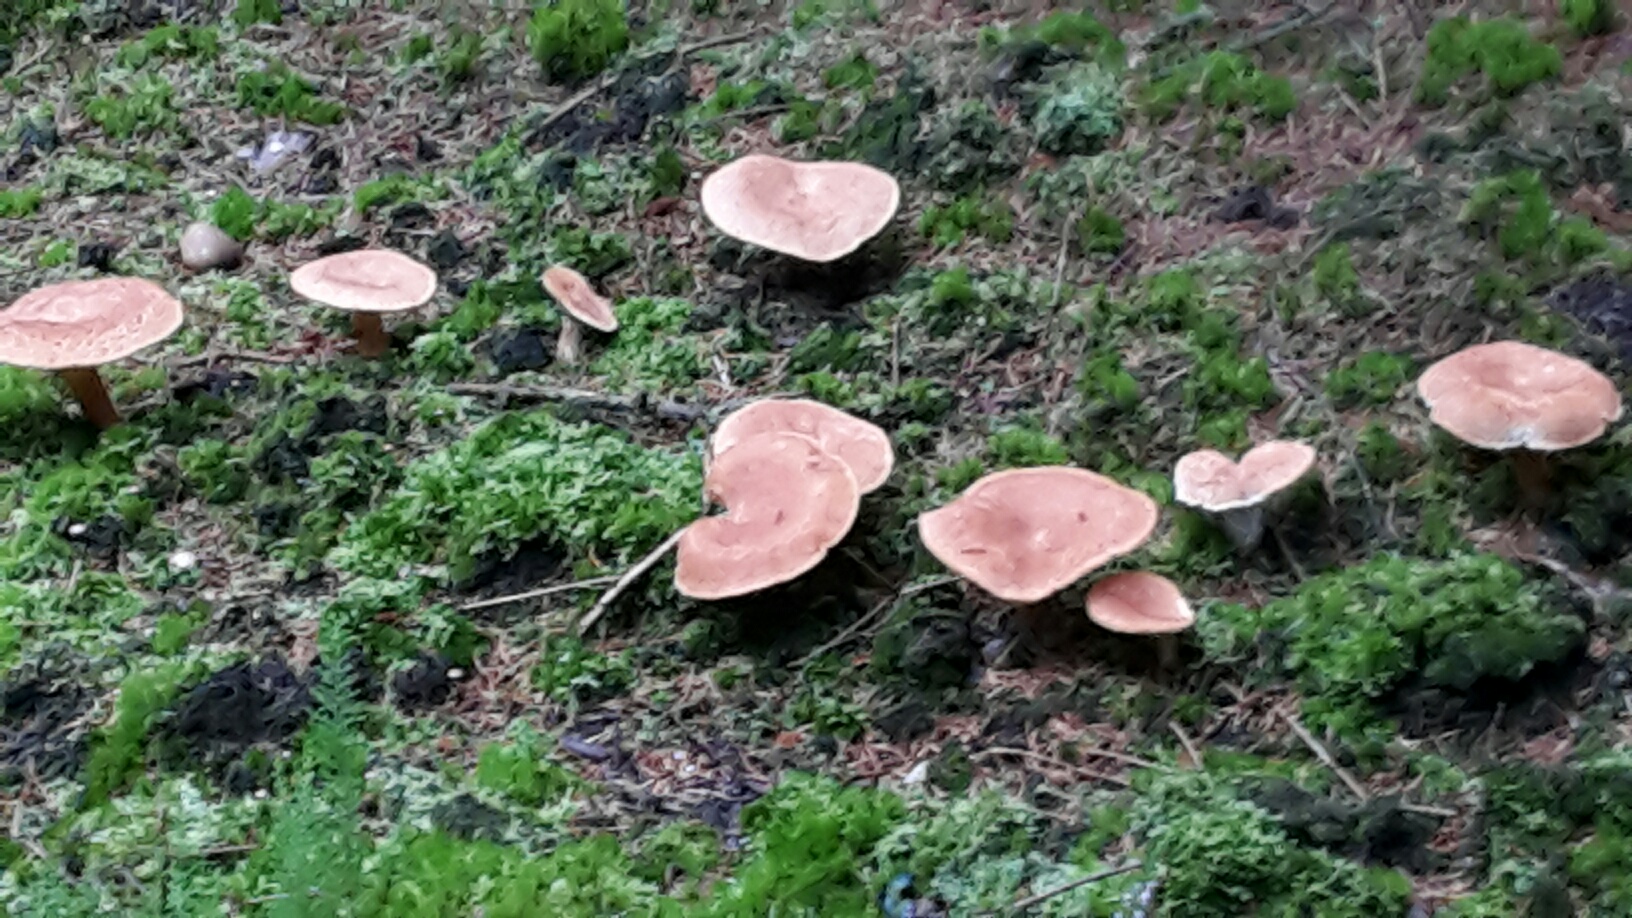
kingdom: Fungi
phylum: Basidiomycota
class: Agaricomycetes
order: Russulales
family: Russulaceae
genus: Lactarius
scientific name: Lactarius helvus
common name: mose-mælkehat
